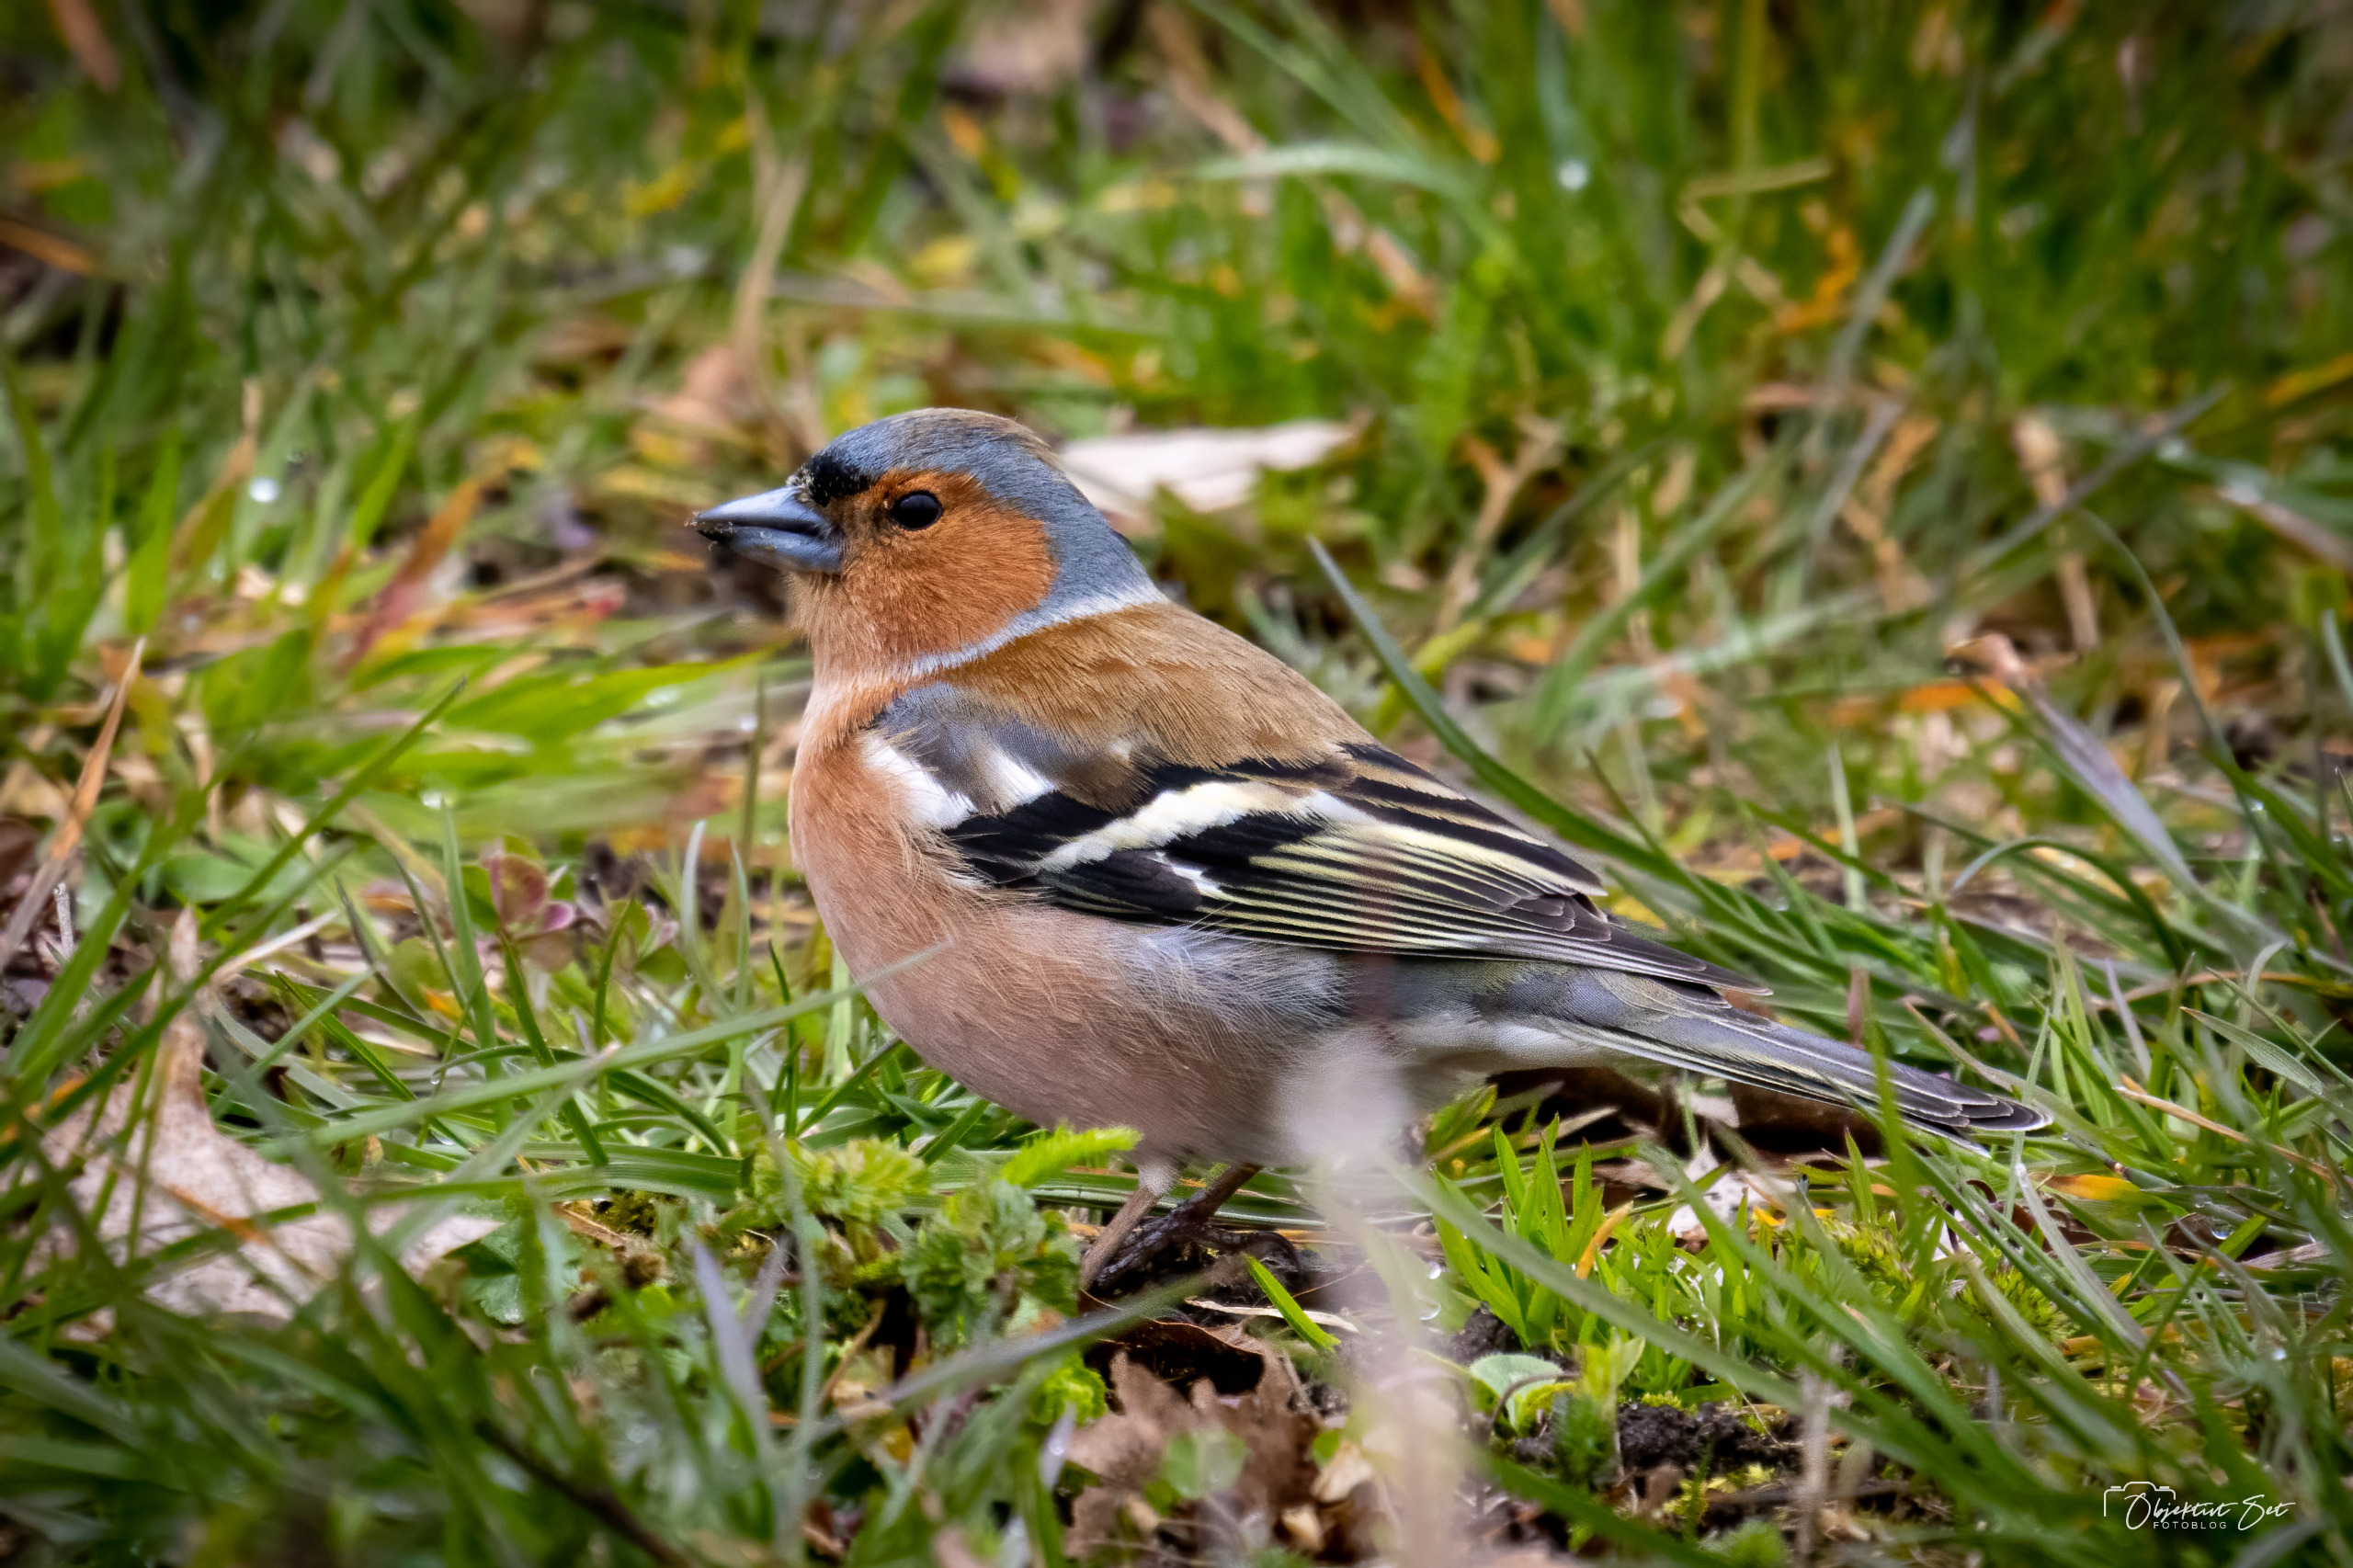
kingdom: Animalia
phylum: Chordata
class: Aves
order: Passeriformes
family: Fringillidae
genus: Fringilla
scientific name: Fringilla coelebs
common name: Bogfinke
